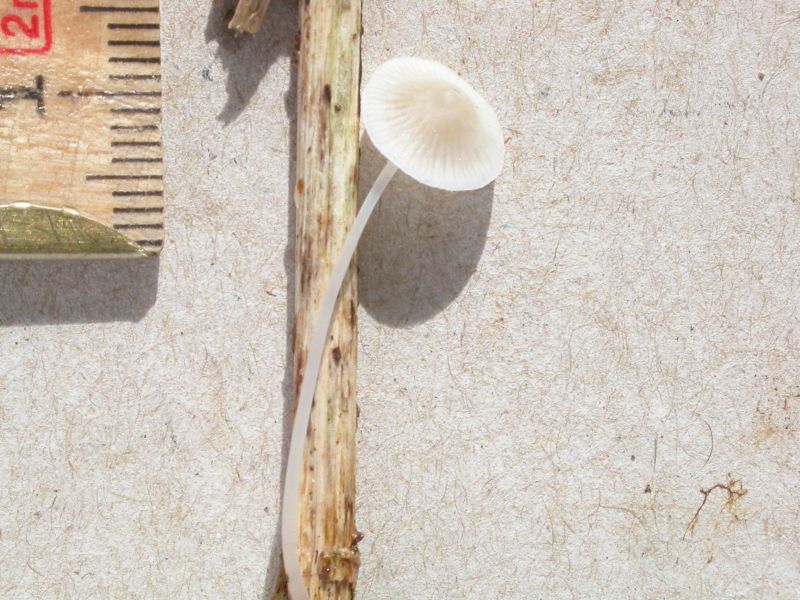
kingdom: Fungi
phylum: Basidiomycota
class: Agaricomycetes
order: Agaricales
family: Mycenaceae
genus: Mycena
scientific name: Mycena bulbosa
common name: siv-huesvamp
